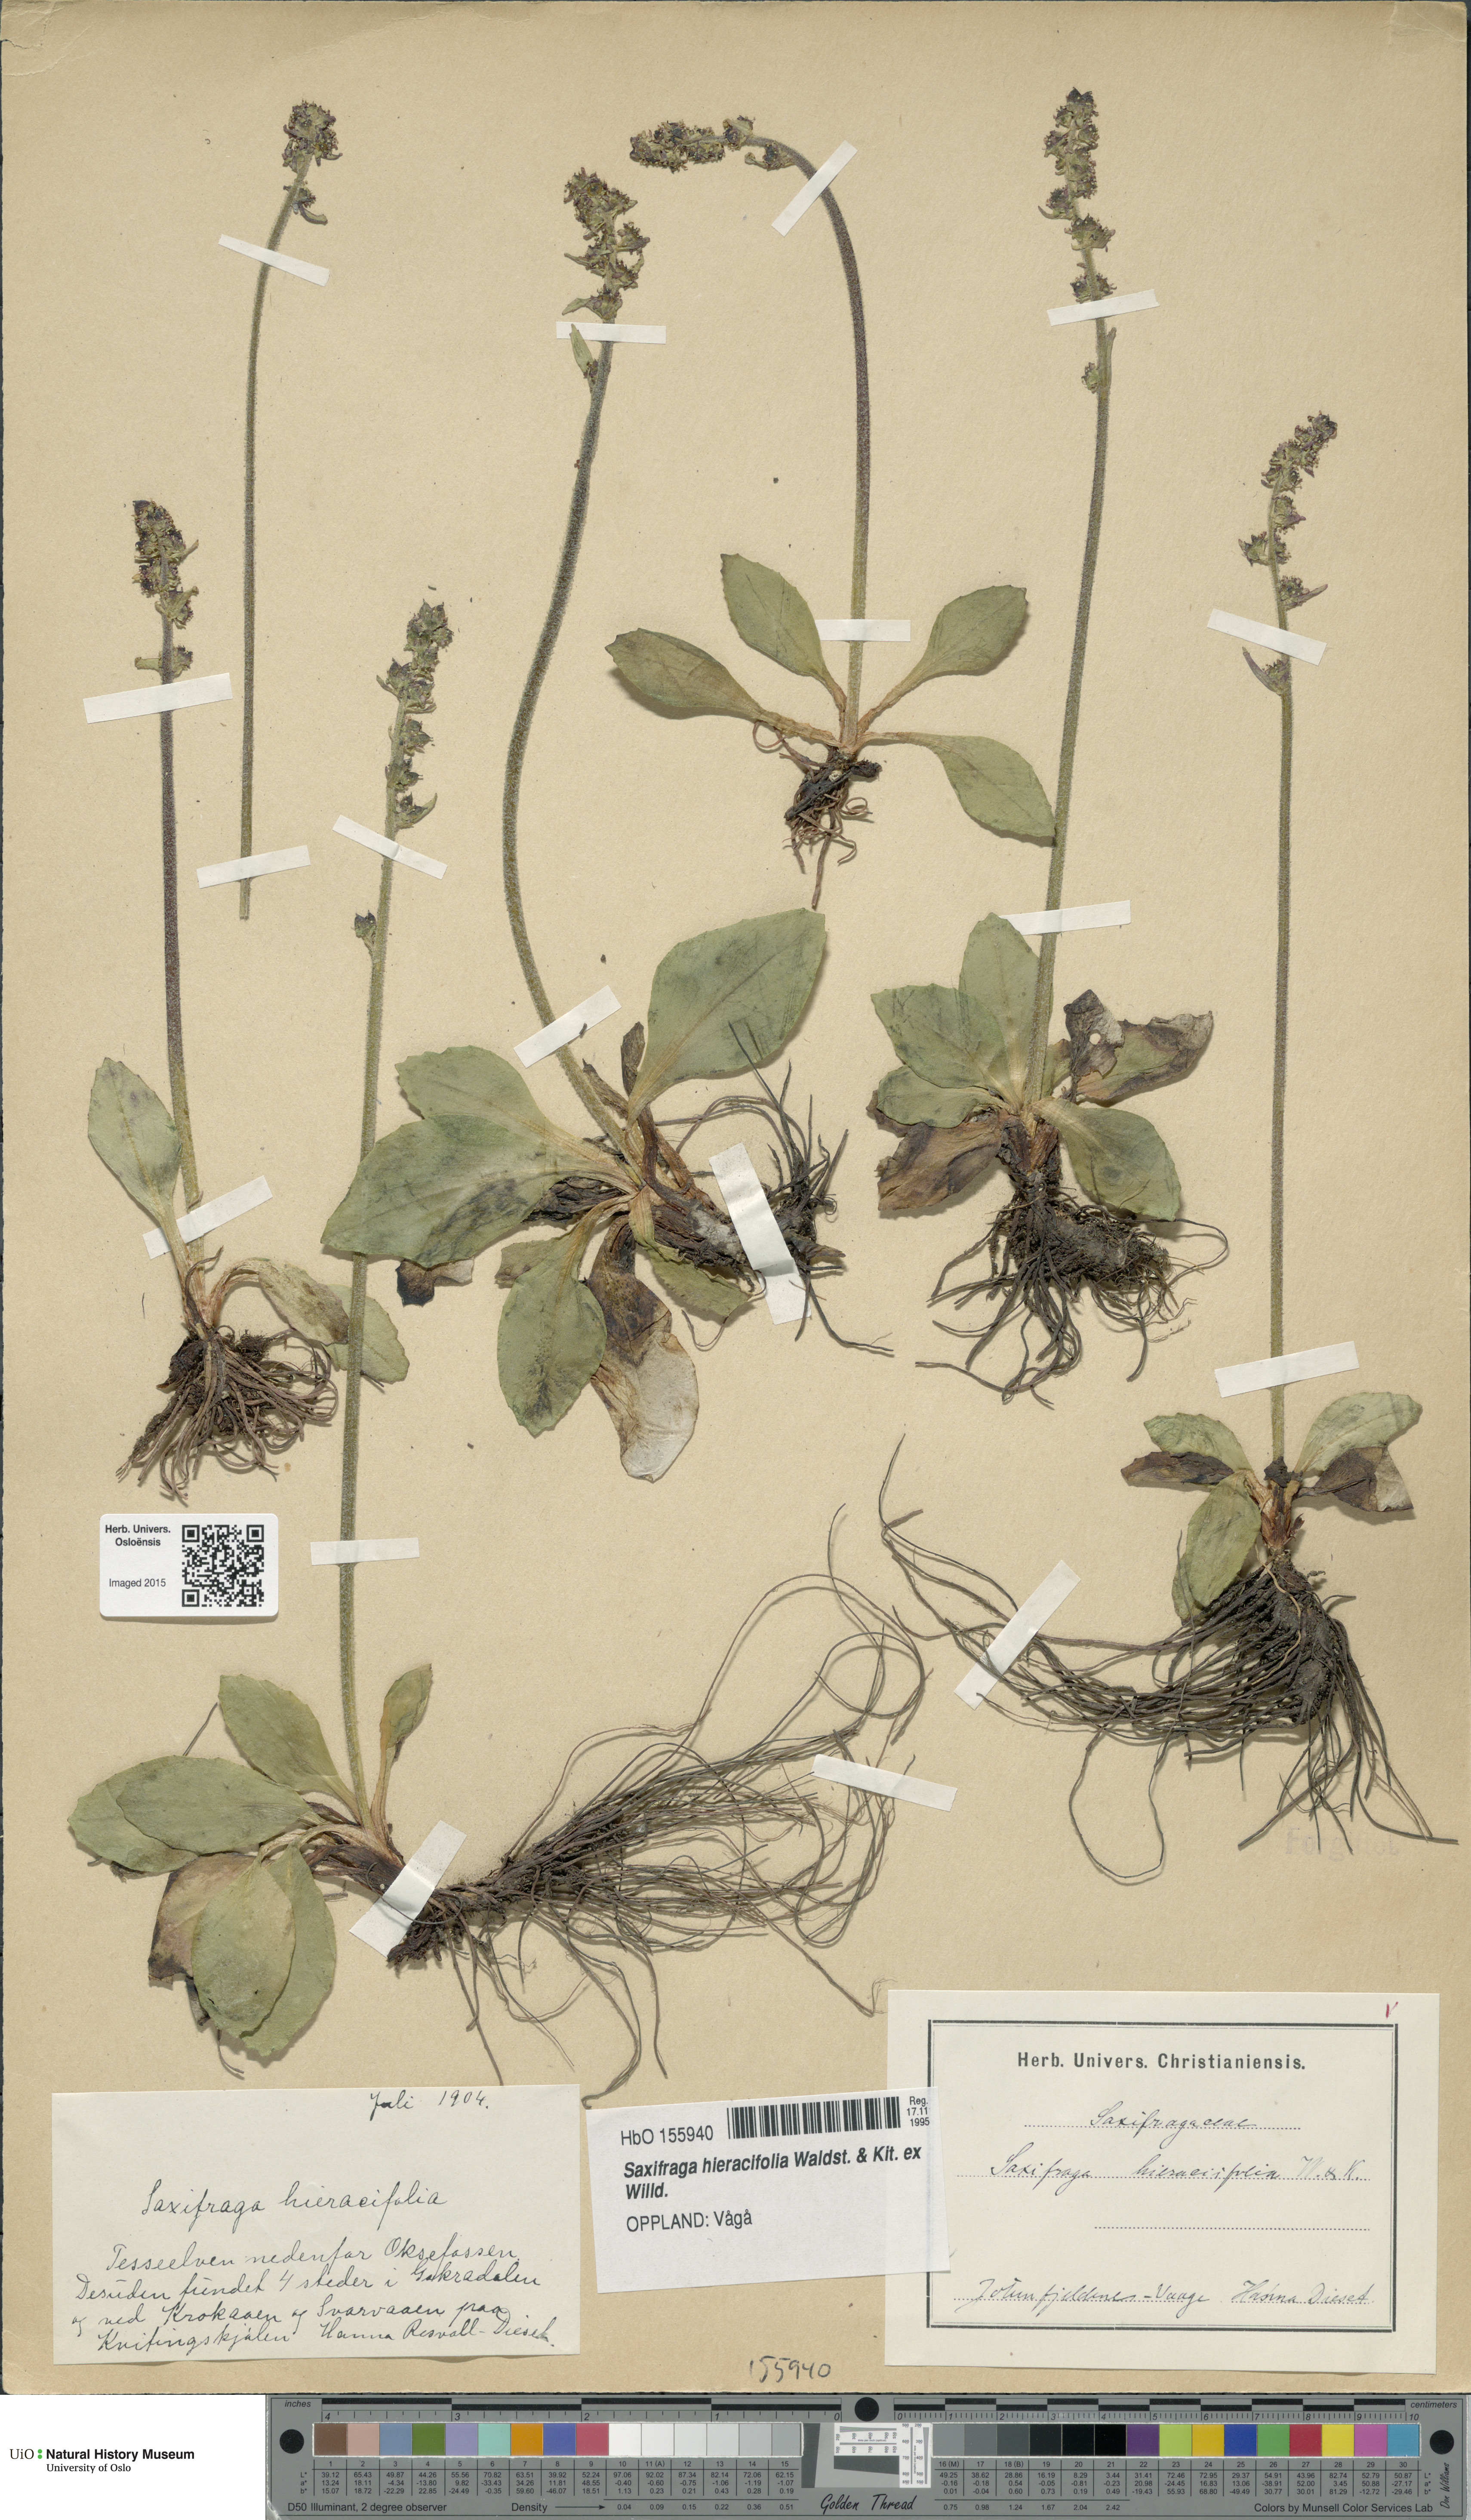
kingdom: Plantae
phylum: Tracheophyta
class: Magnoliopsida
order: Saxifragales
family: Saxifragaceae
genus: Micranthes
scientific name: Micranthes hieraciifolia
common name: Hawkweed-leaved saxifrage
